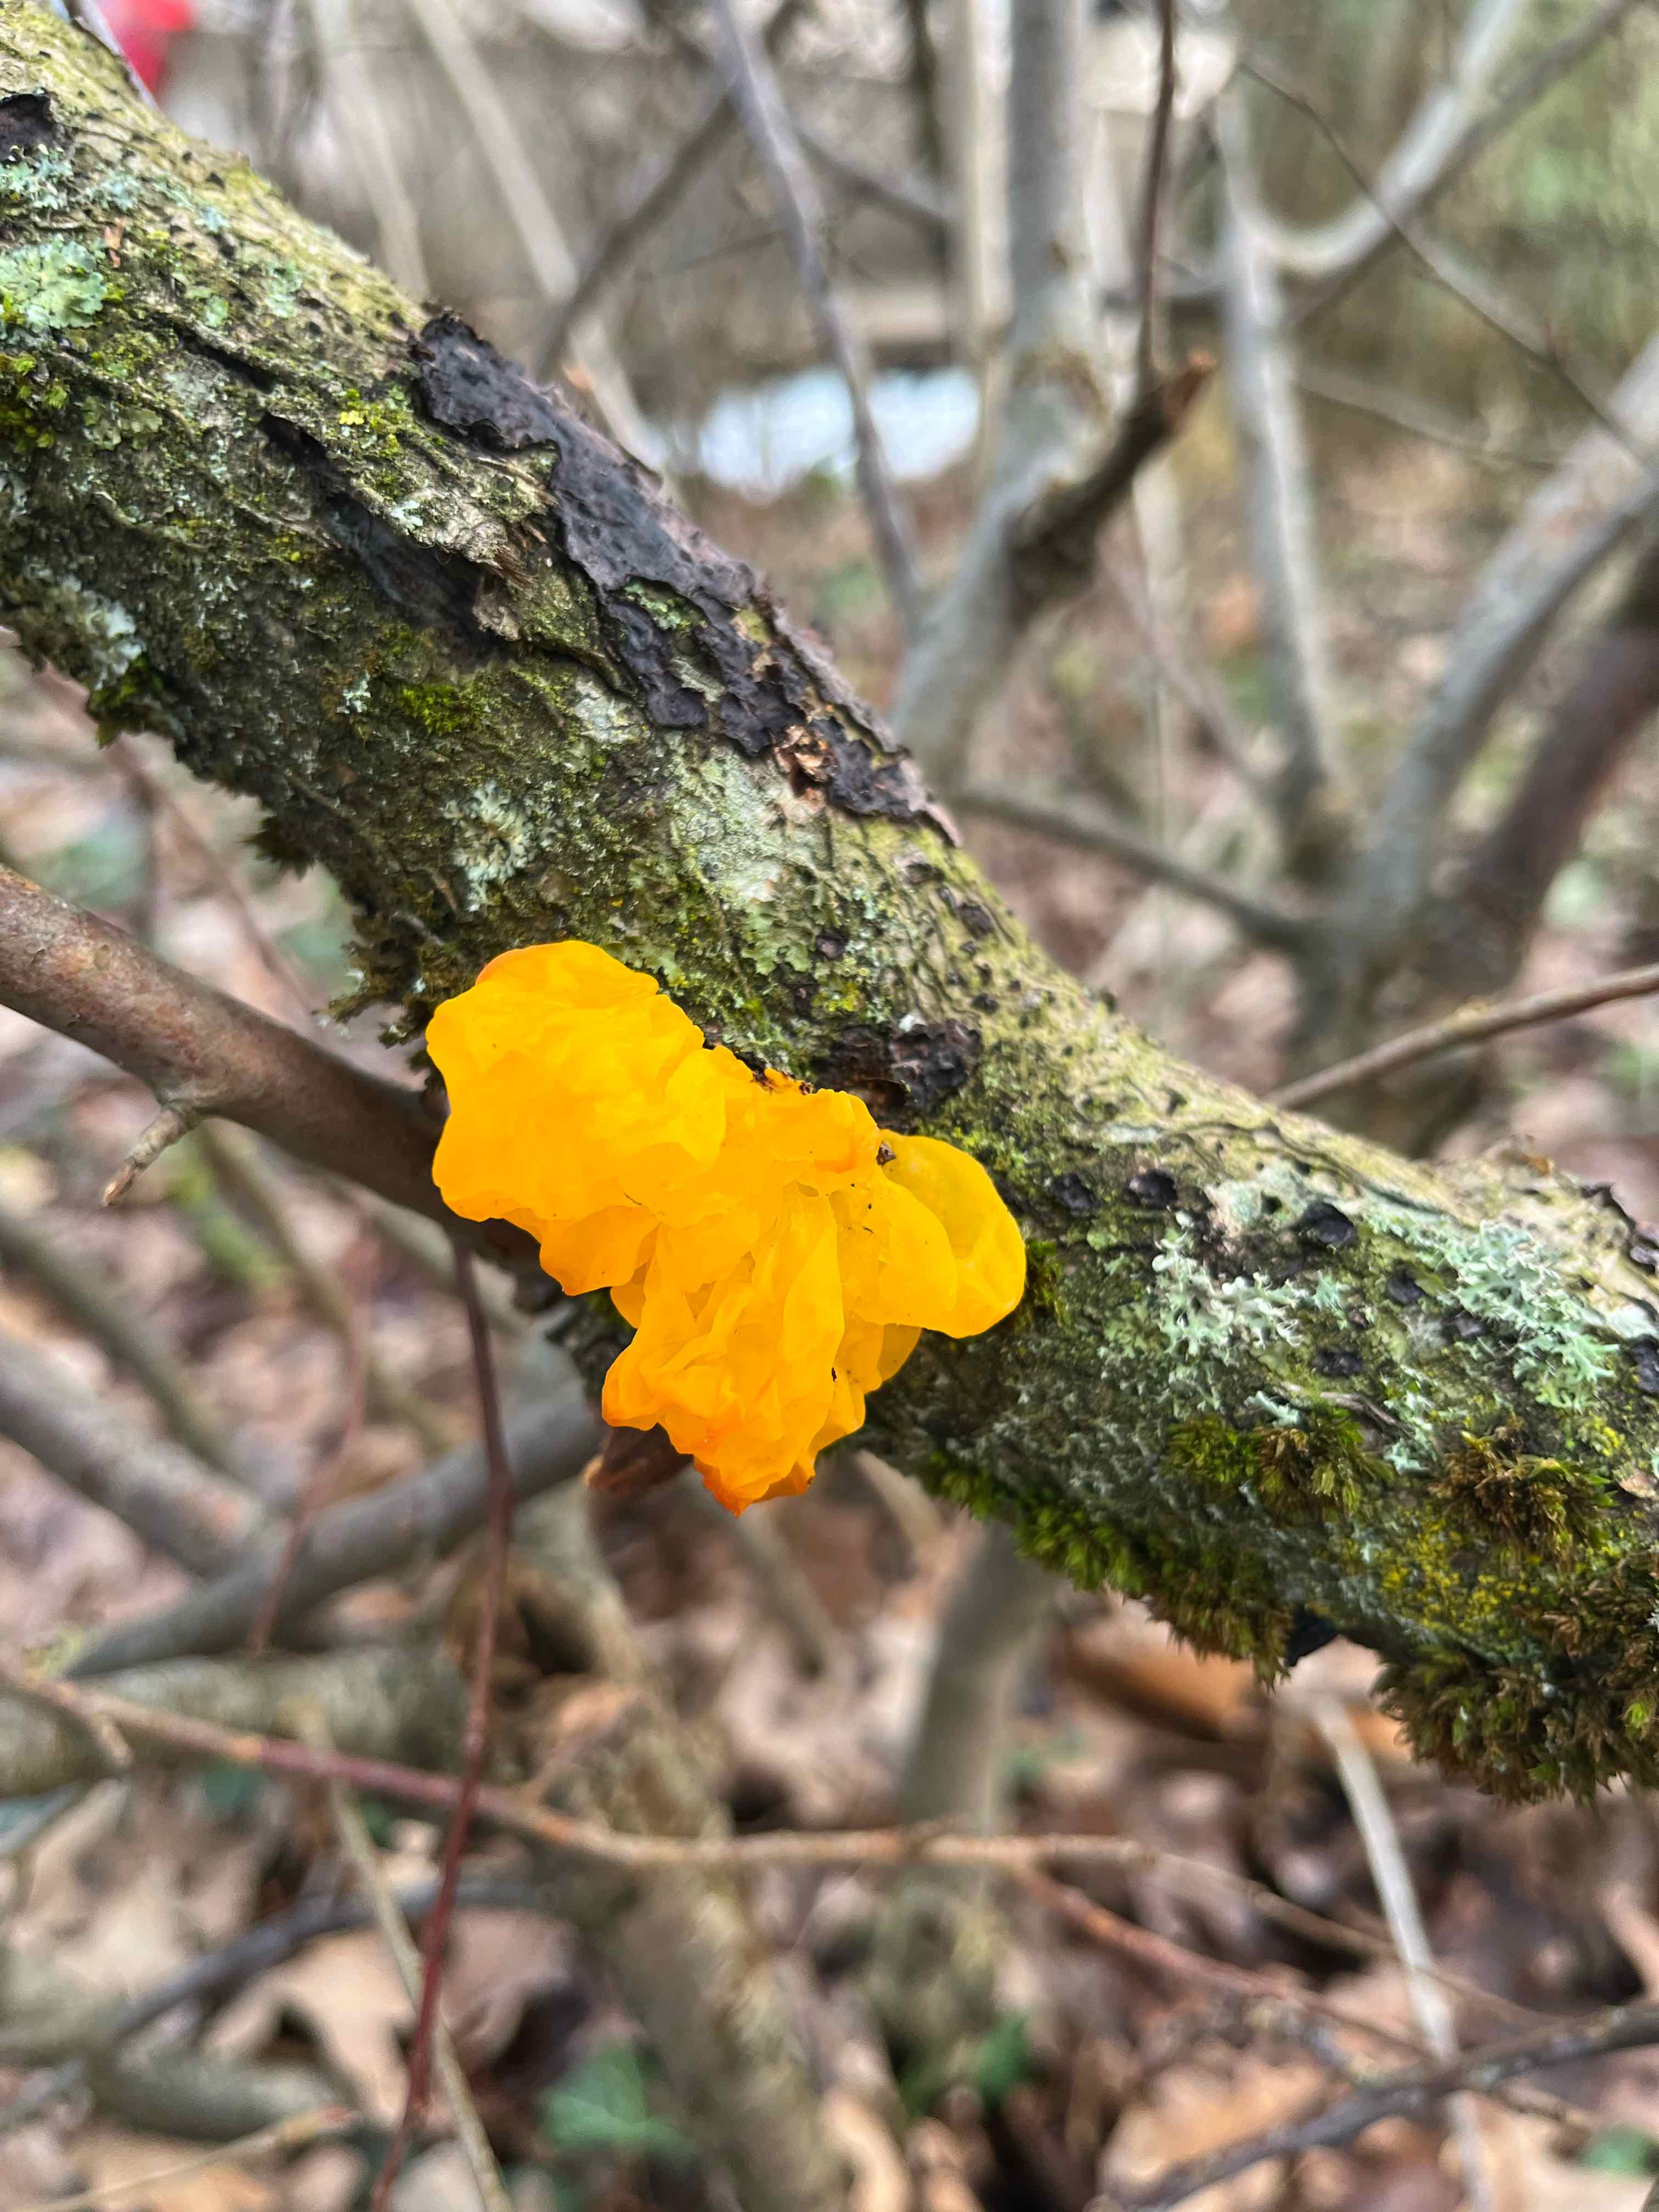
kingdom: Fungi
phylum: Basidiomycota
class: Tremellomycetes
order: Tremellales
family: Tremellaceae
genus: Tremella
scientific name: Tremella mesenterica
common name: gul bævresvamp
